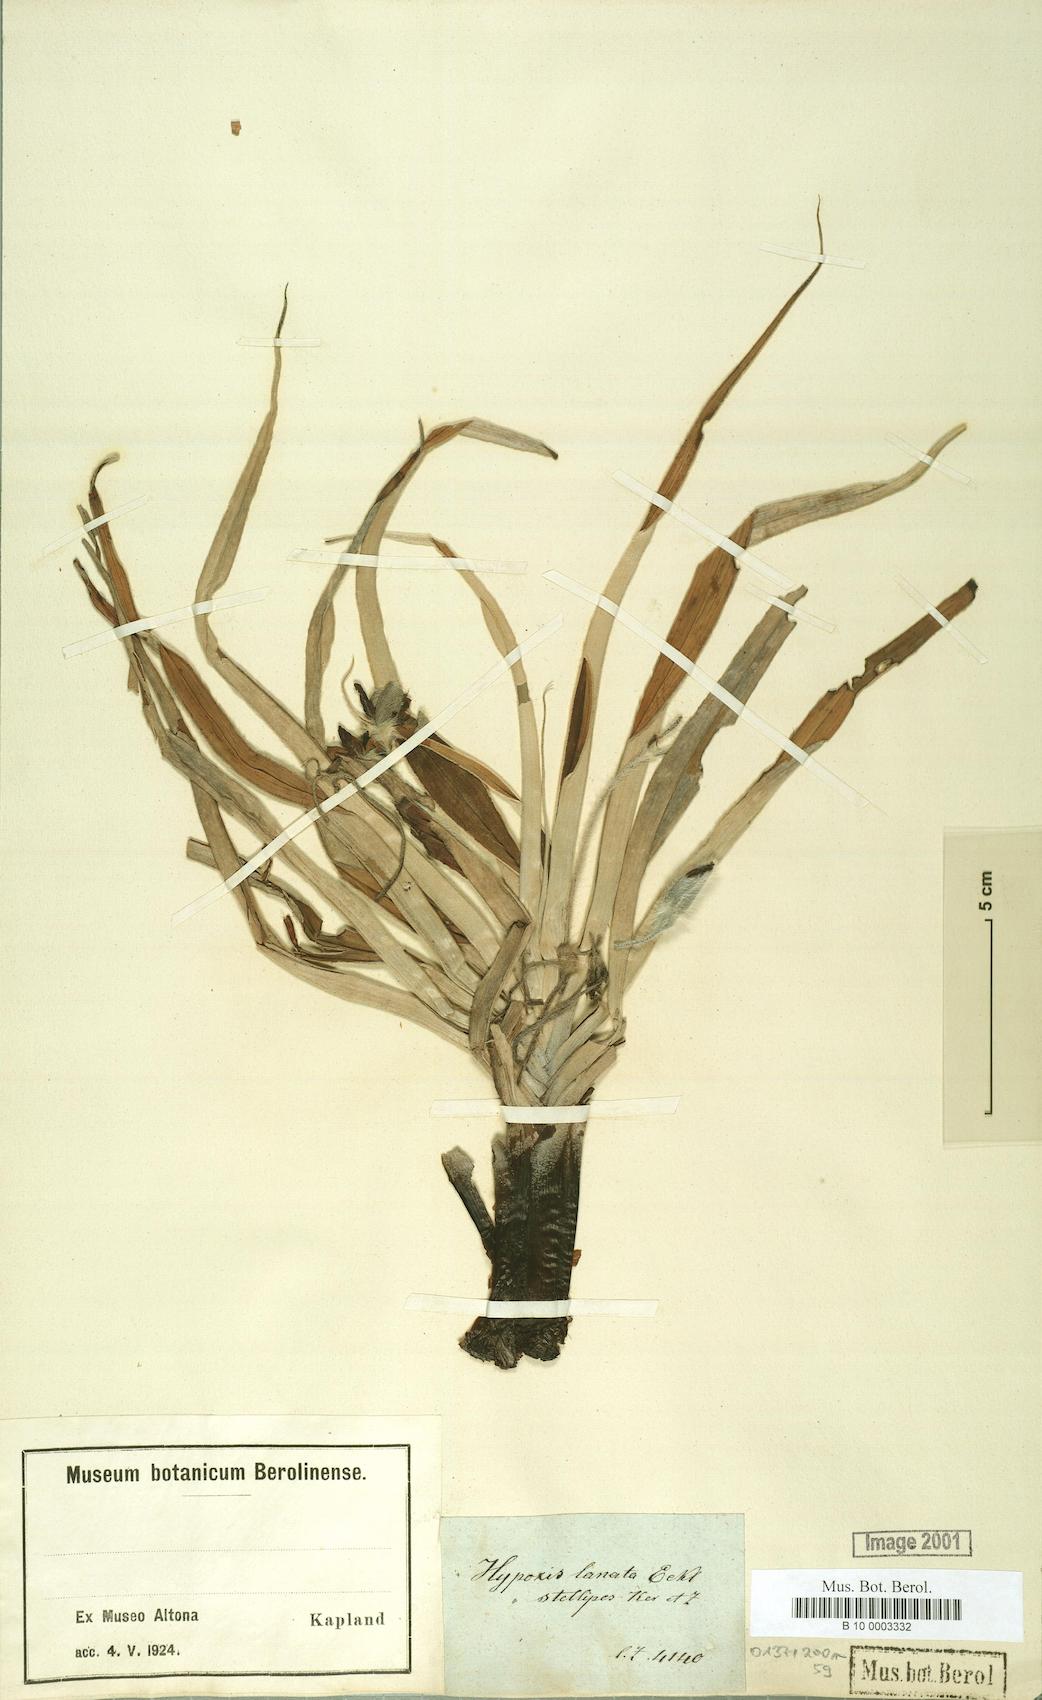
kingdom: Plantae
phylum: Tracheophyta
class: Liliopsida
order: Asparagales
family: Hypoxidaceae
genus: Hypoxis
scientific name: Hypoxis stellipilis
